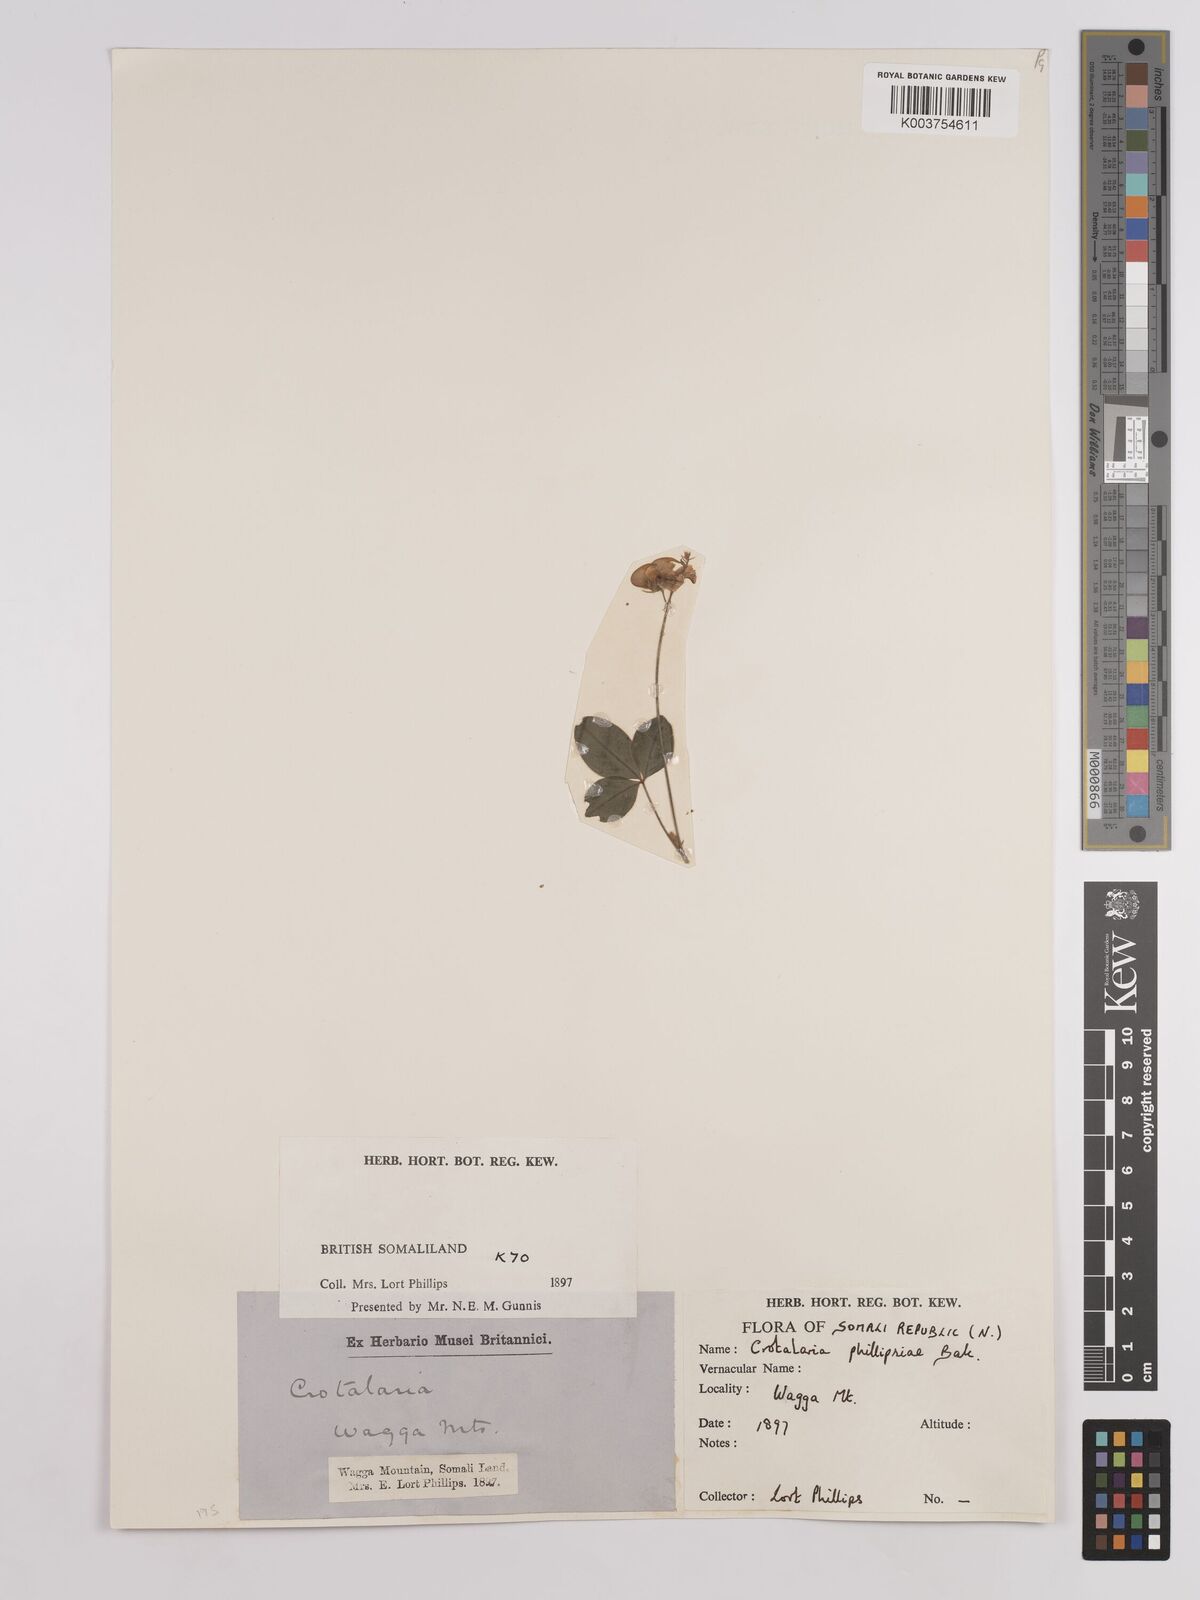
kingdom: Plantae
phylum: Tracheophyta
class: Magnoliopsida
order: Fabales
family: Fabaceae
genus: Crotalaria
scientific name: Crotalaria phillipsiae
